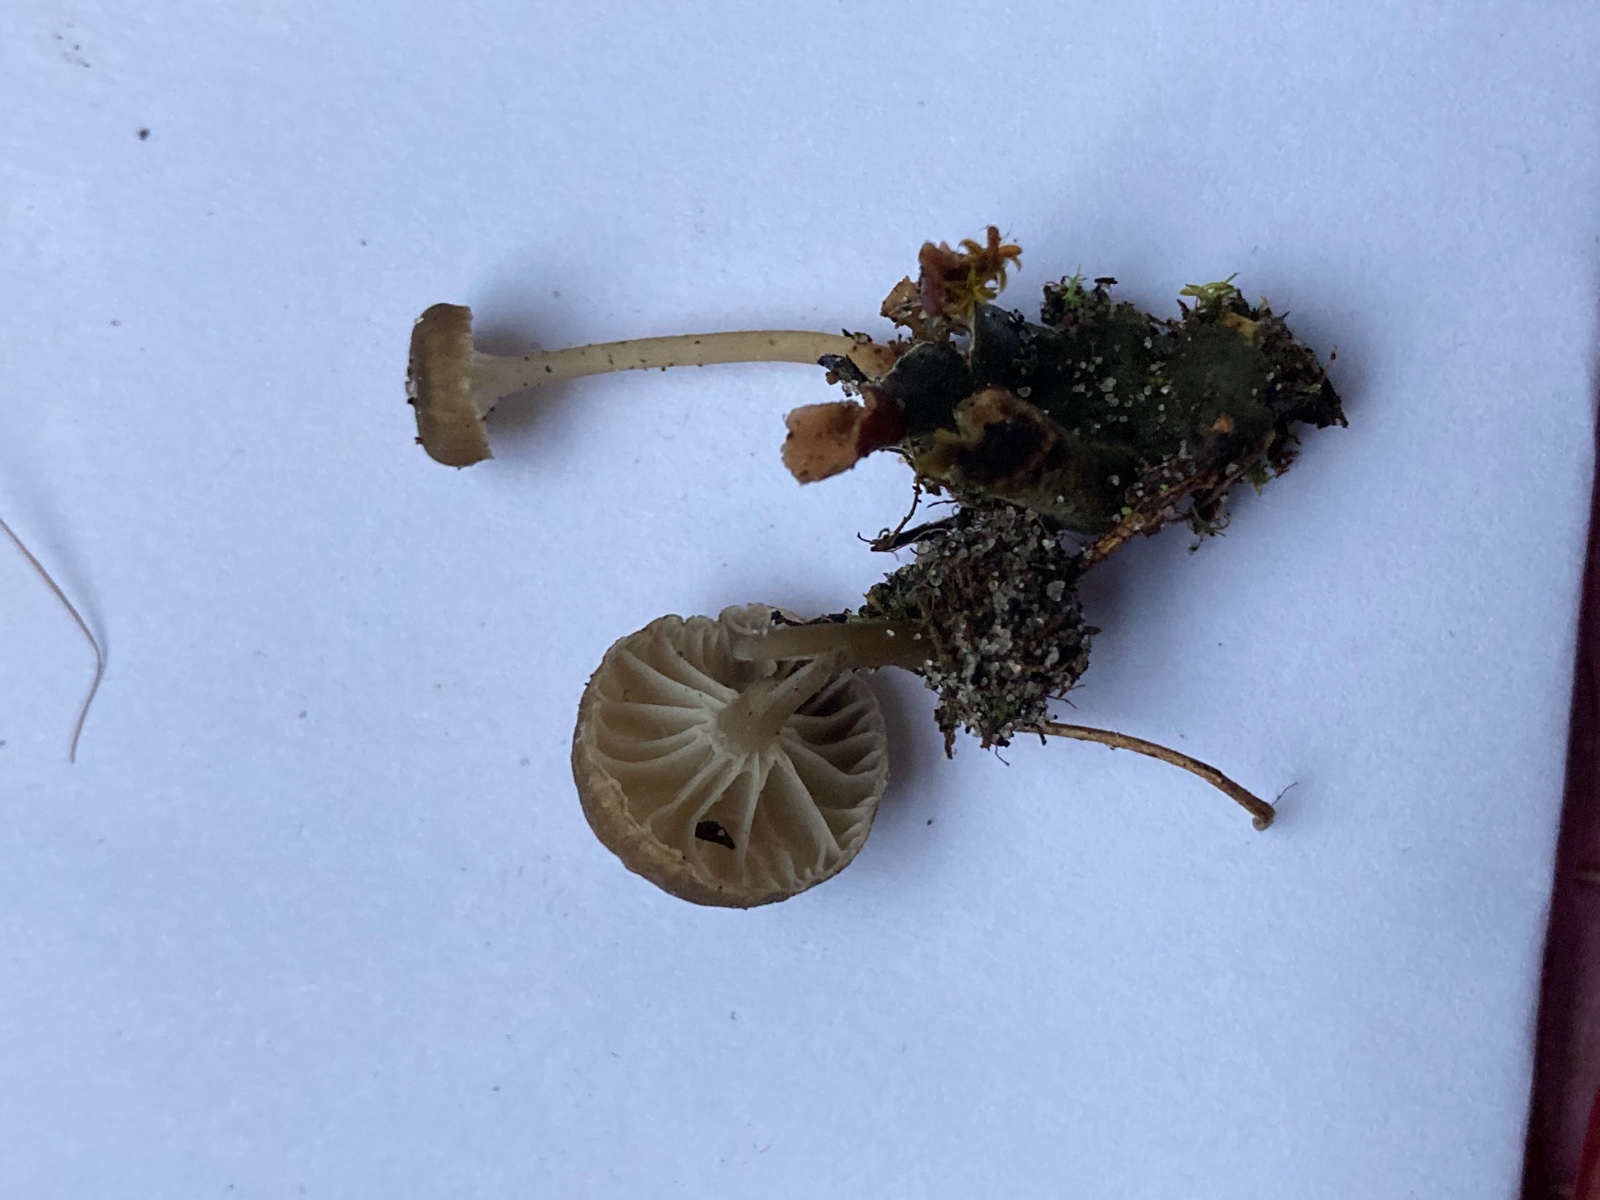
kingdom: Fungi
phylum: Basidiomycota
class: Agaricomycetes
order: Agaricales
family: Tricholomataceae
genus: Gamundia
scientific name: Gamundia xerophila
